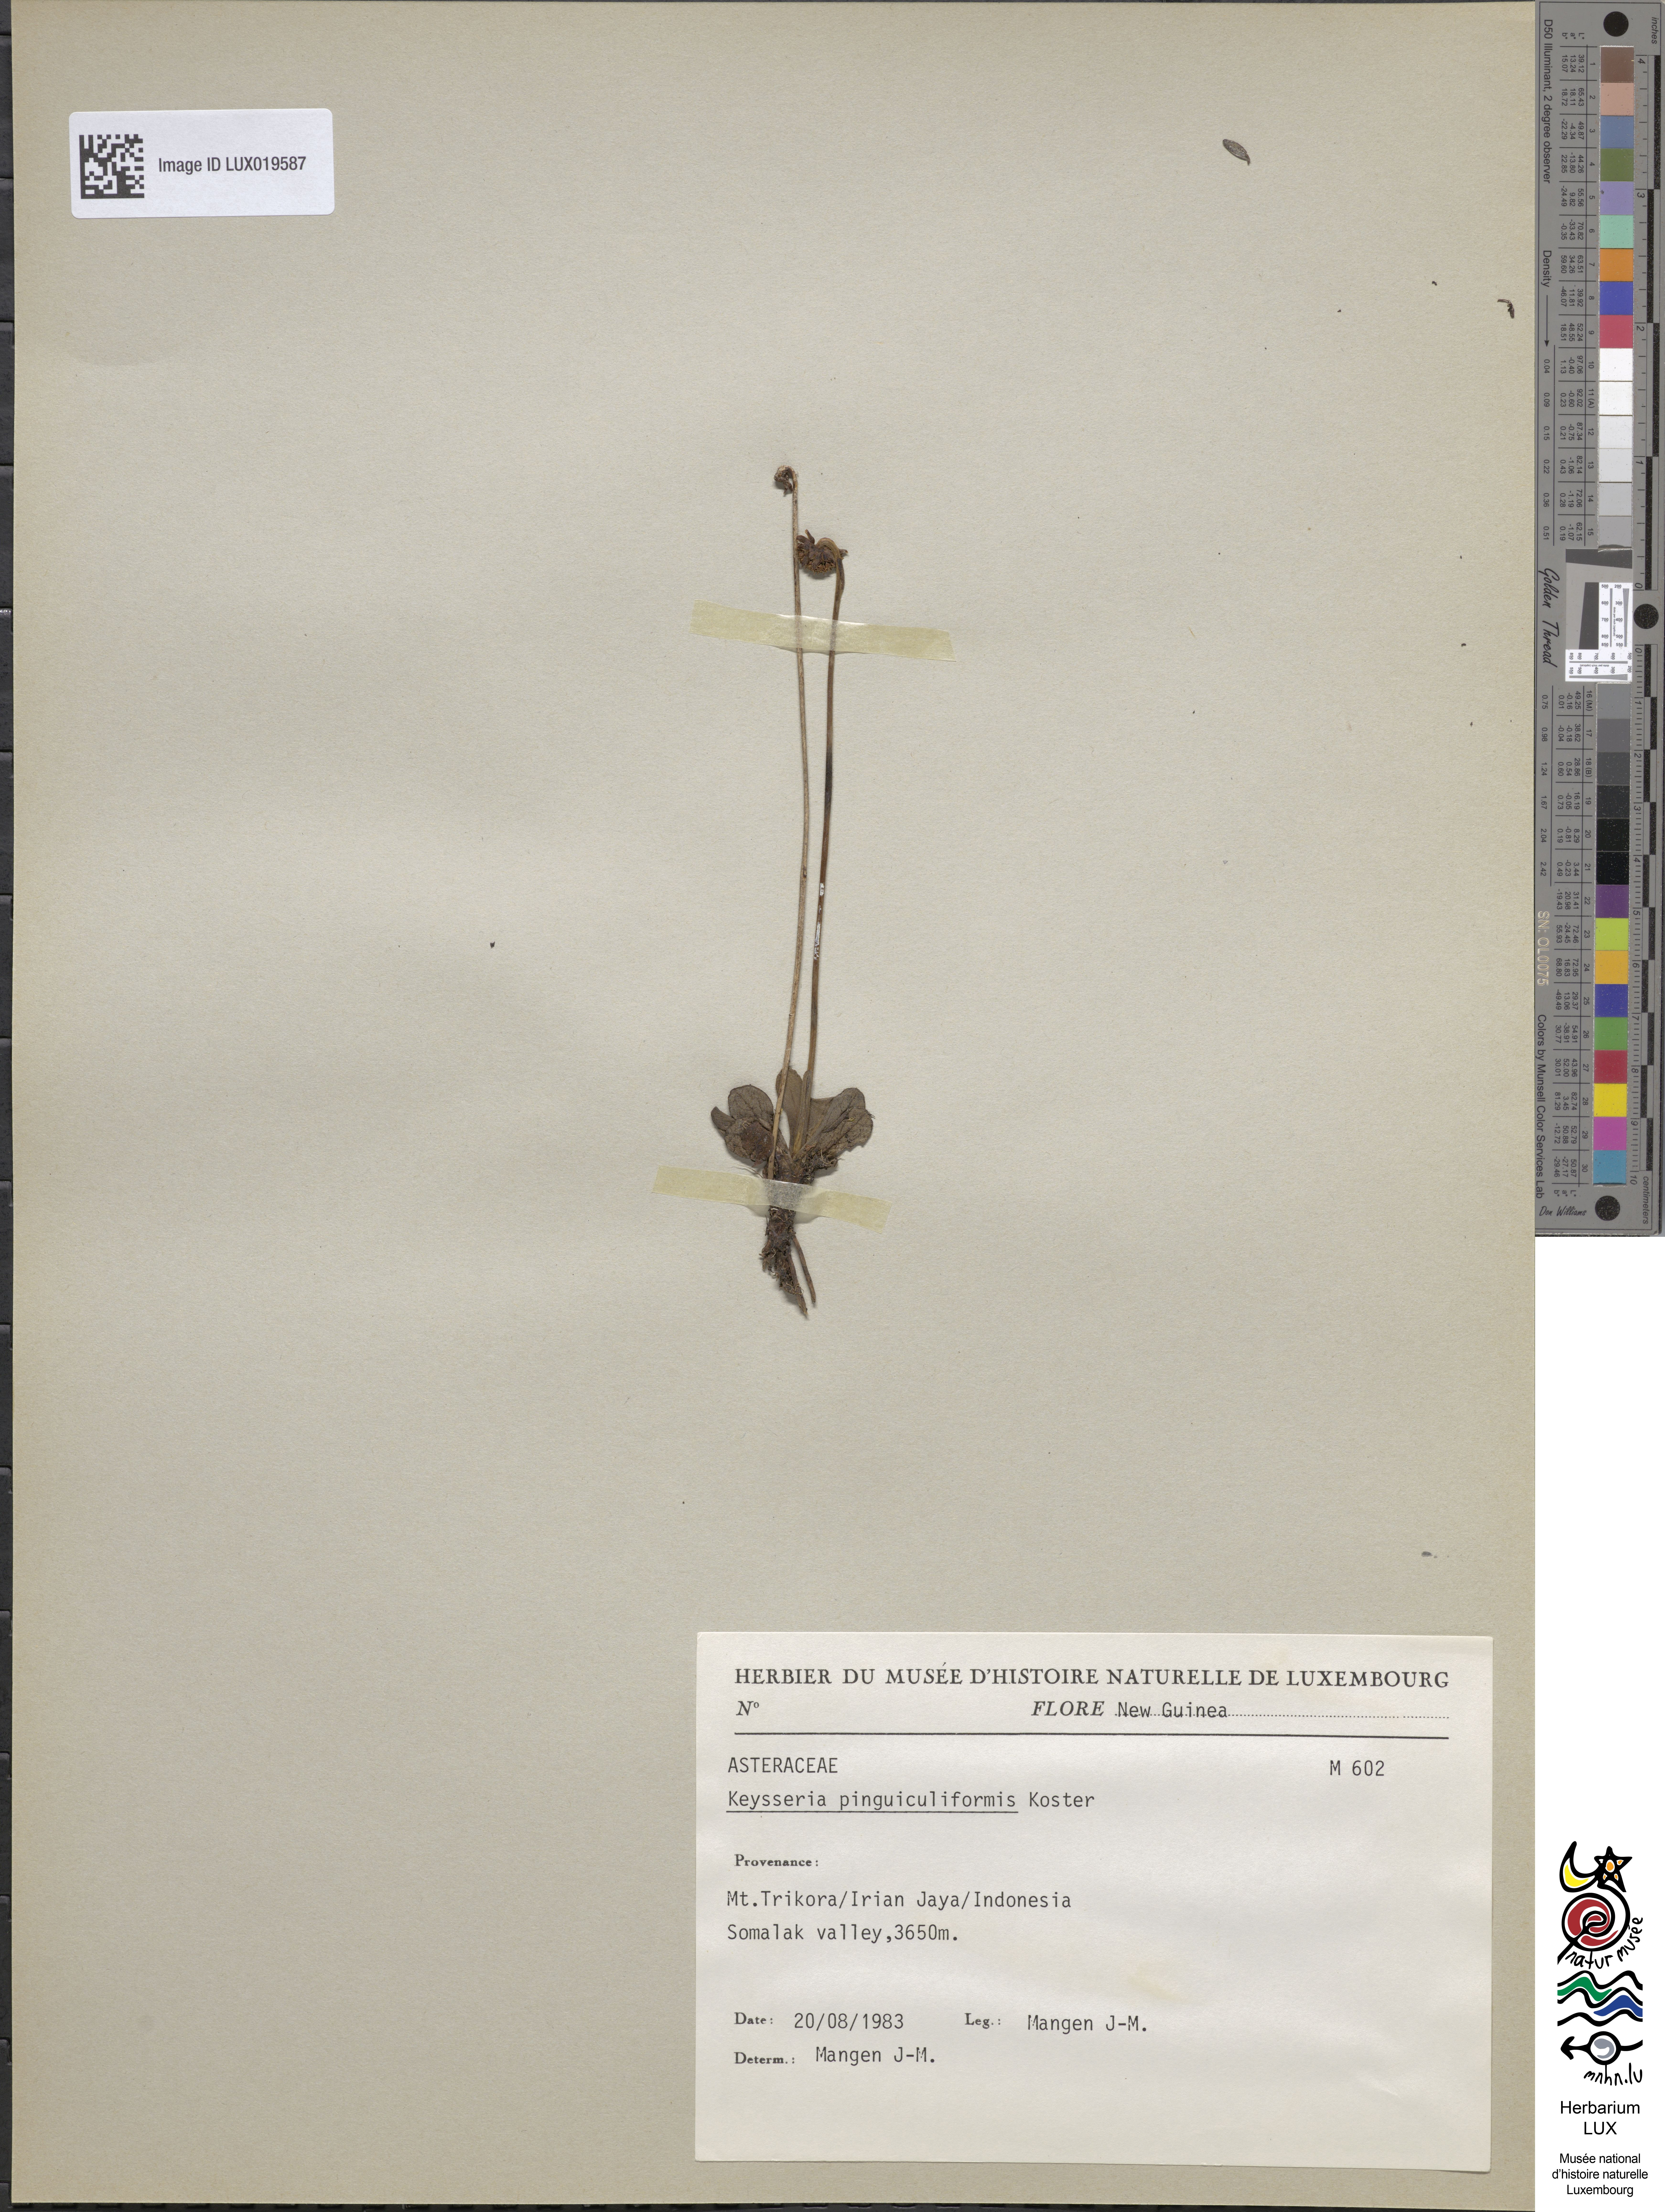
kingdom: Plantae
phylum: Tracheophyta
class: Magnoliopsida
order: Asterales
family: Asteraceae
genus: Keysseria
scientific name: Keysseria pinguiculiformis
